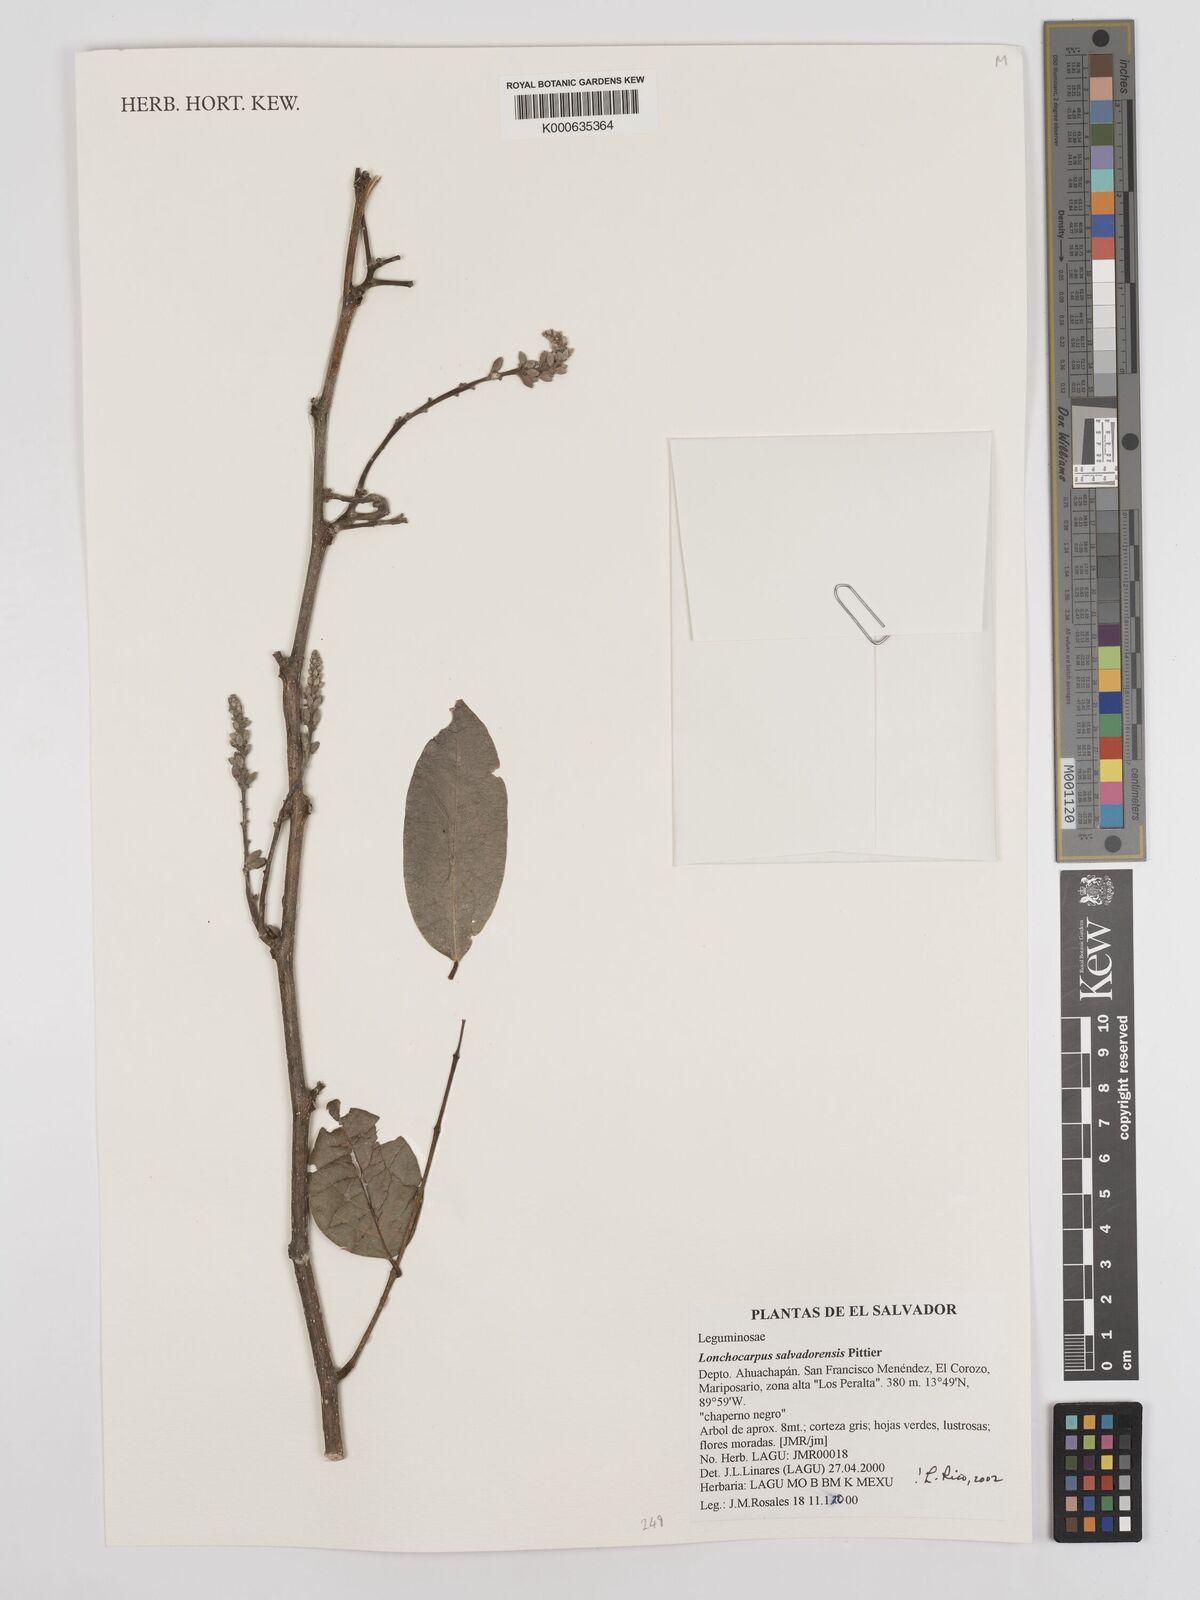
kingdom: Plantae
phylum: Tracheophyta
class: Magnoliopsida
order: Fabales
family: Fabaceae
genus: Lonchocarpus
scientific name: Lonchocarpus salvadorensis
